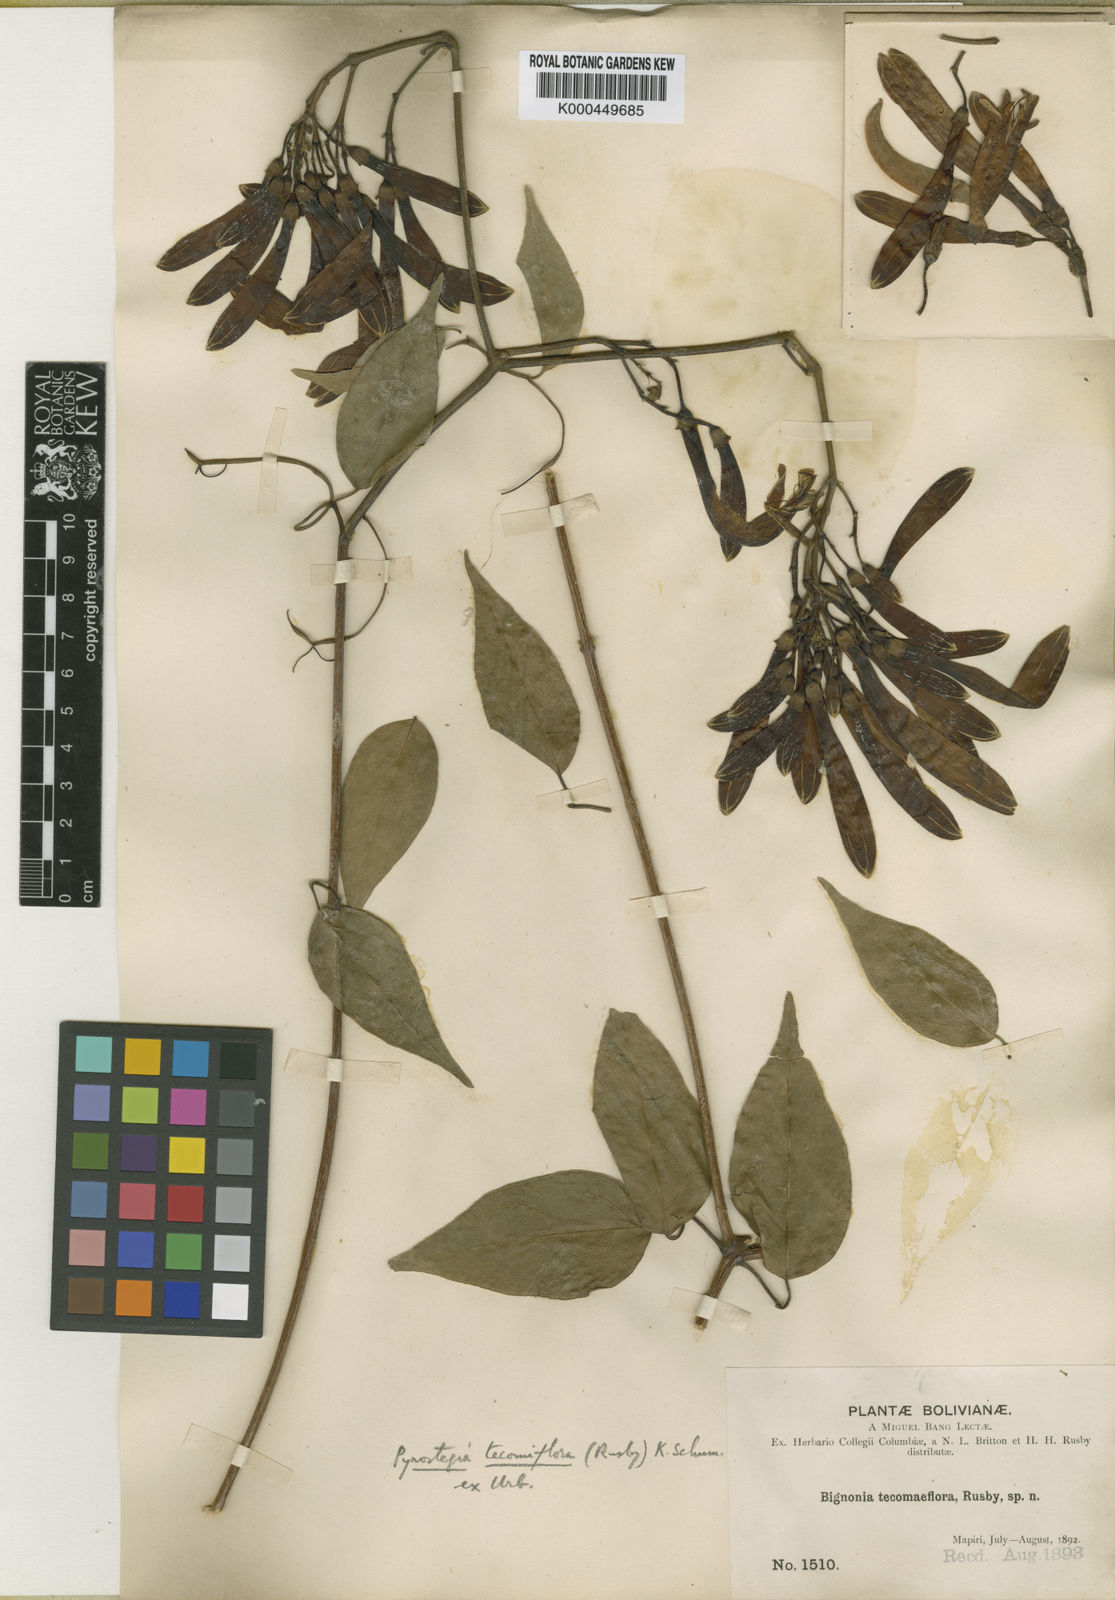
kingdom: Plantae
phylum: Tracheophyta
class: Magnoliopsida
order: Lamiales
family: Bignoniaceae
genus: Pyrostegia
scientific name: Pyrostegia venusta
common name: Flamevine
